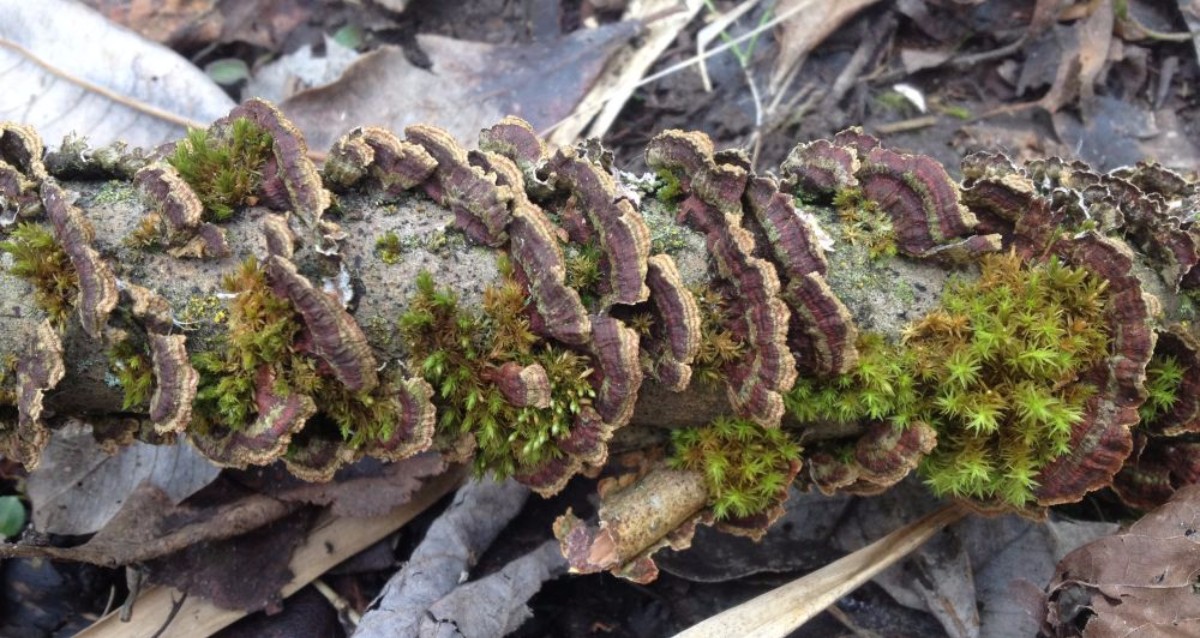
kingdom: Fungi
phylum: Basidiomycota
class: Agaricomycetes
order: Hymenochaetales
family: Hymenochaetaceae
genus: Hydnoporia
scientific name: Hydnoporia tabacina
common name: tobaksbrun ruslædersvamp
